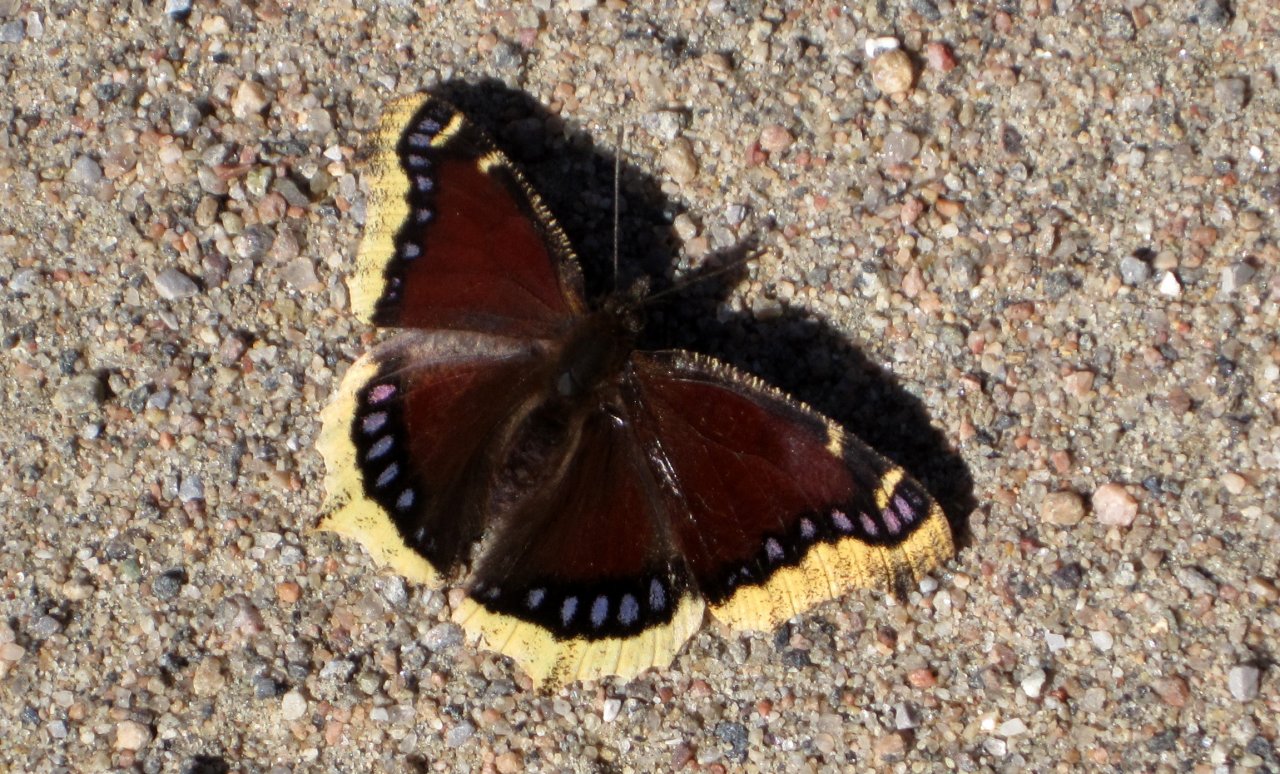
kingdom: Animalia
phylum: Arthropoda
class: Insecta
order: Lepidoptera
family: Nymphalidae
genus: Nymphalis
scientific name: Nymphalis antiopa
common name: Mourning Cloak
